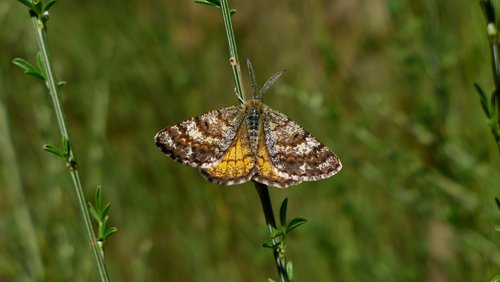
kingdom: Animalia
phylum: Arthropoda
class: Insecta
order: Lepidoptera
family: Geometridae
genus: Isturgia
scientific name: Isturgia famula
